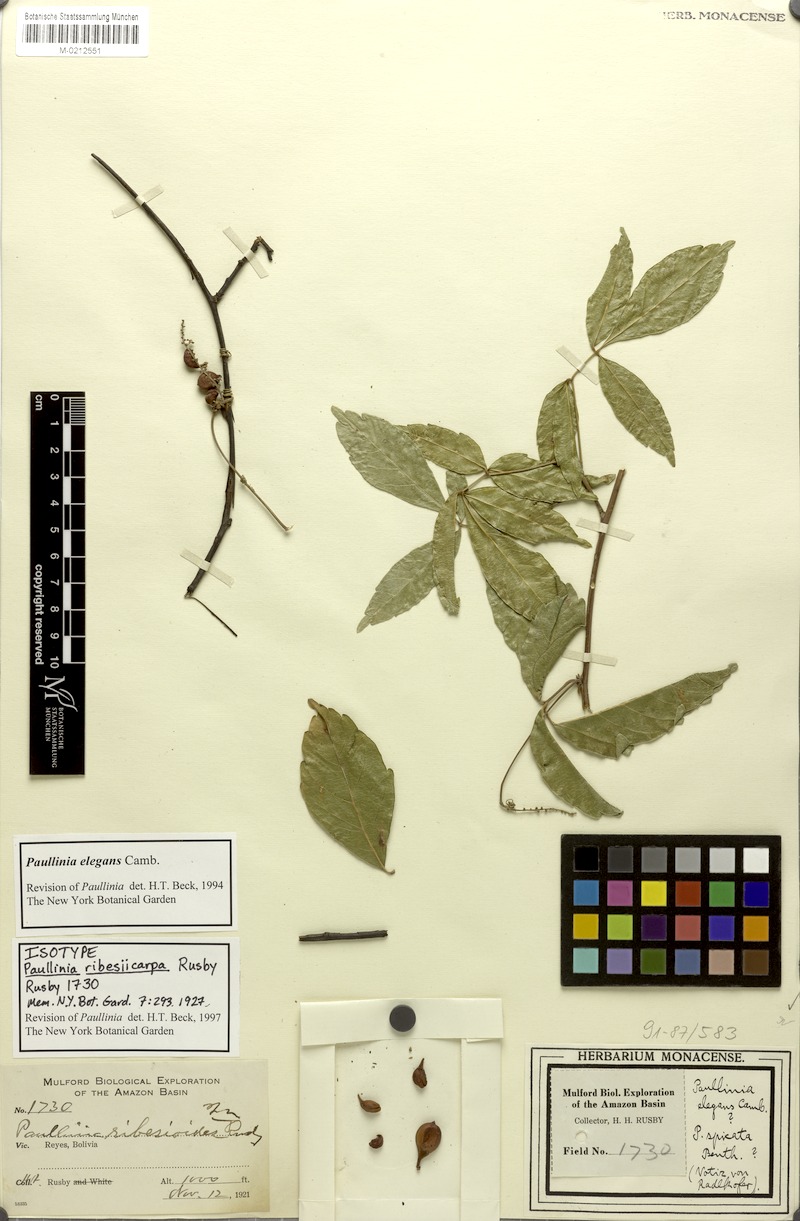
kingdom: Plantae
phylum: Tracheophyta
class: Magnoliopsida
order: Sapindales
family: Sapindaceae
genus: Paullinia
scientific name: Paullinia elegans
